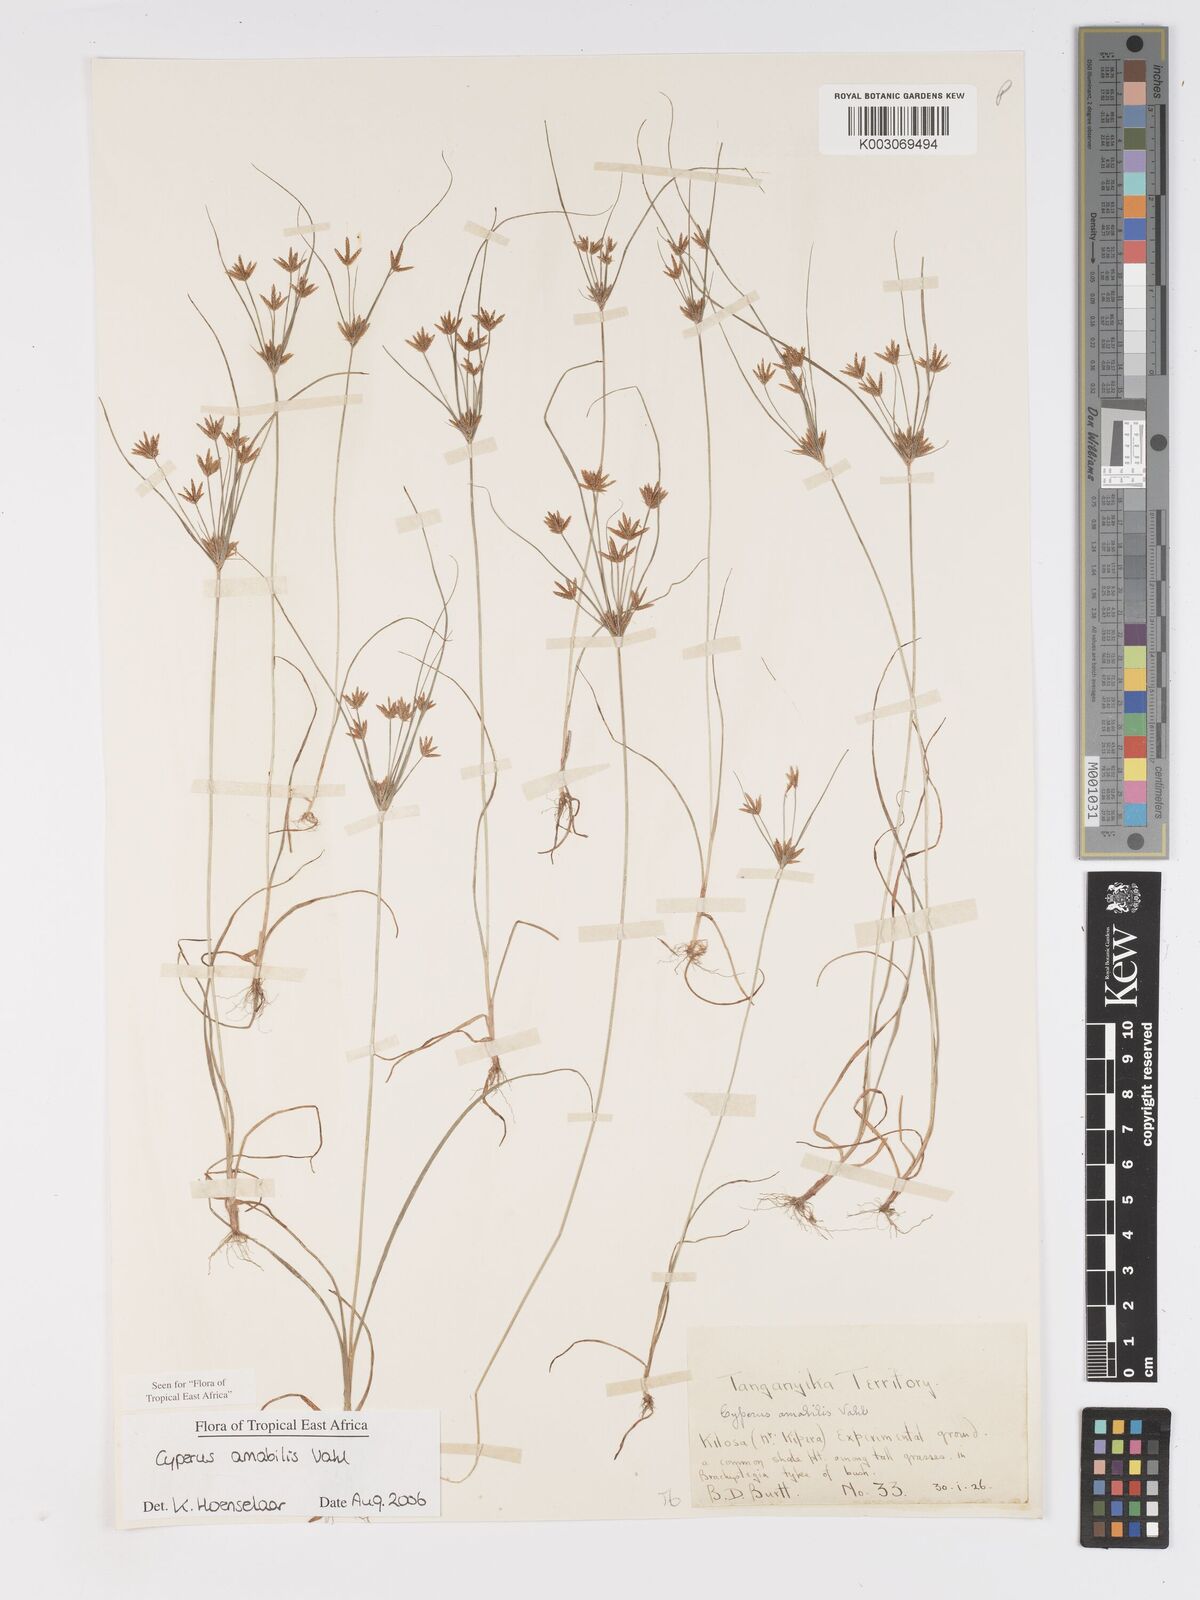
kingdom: Plantae
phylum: Tracheophyta
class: Liliopsida
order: Poales
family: Cyperaceae
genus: Cyperus
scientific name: Cyperus amabilis
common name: Foothill flat sedge
